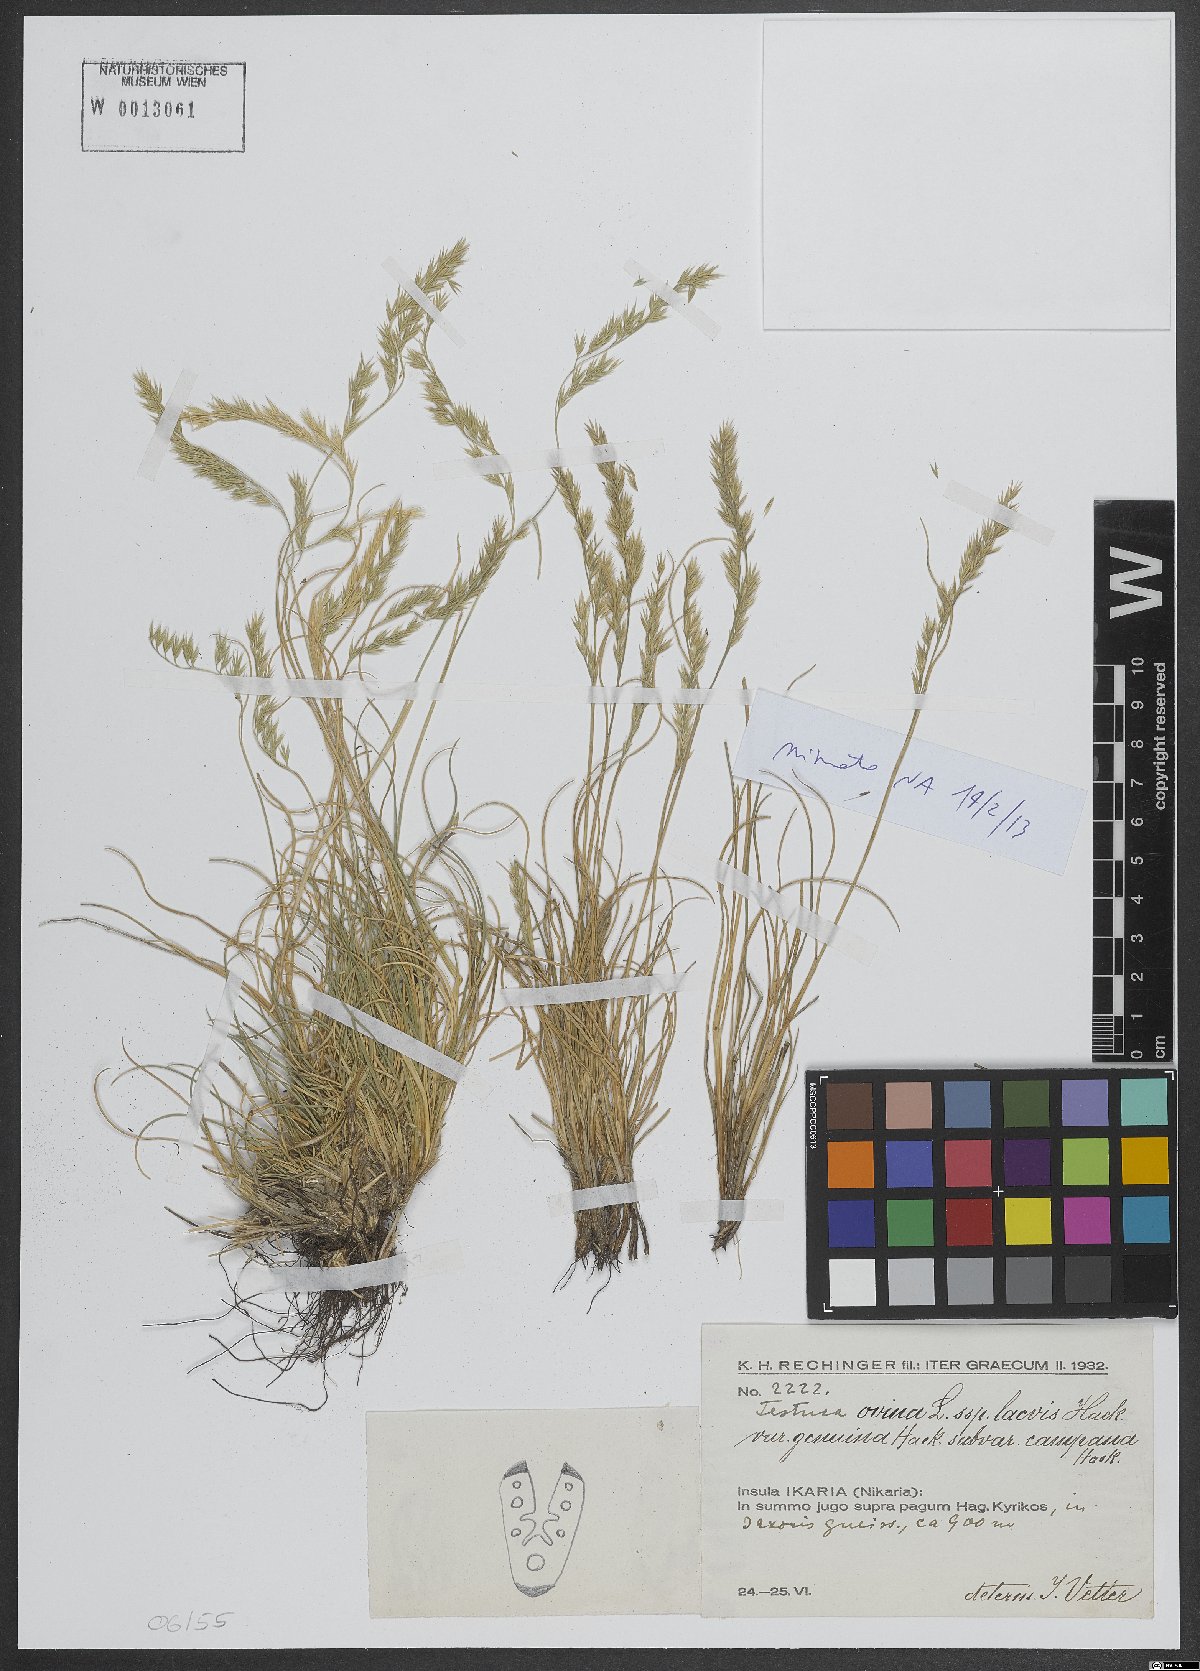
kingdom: Plantae
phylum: Tracheophyta
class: Liliopsida
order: Poales
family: Poaceae
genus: Festuca
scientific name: Festuca circummediterranea
